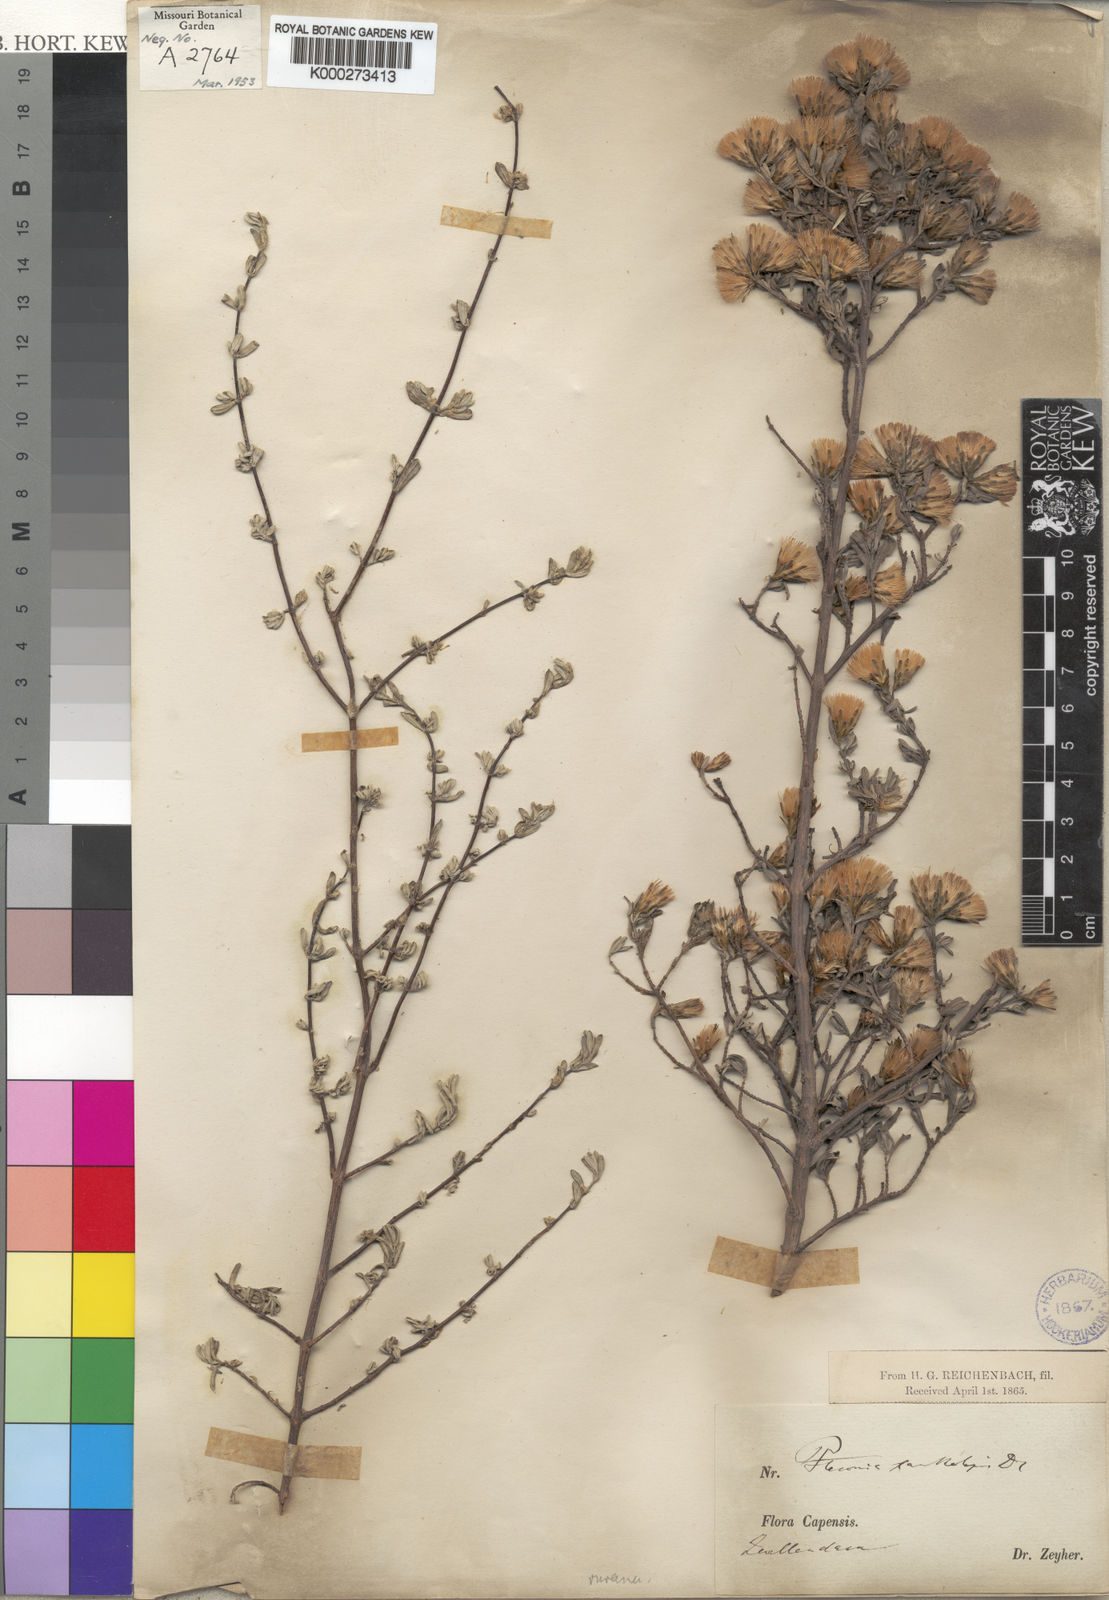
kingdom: Plantae
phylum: Tracheophyta
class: Magnoliopsida
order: Asterales
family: Asteraceae
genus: Pteronia
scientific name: Pteronia incana
